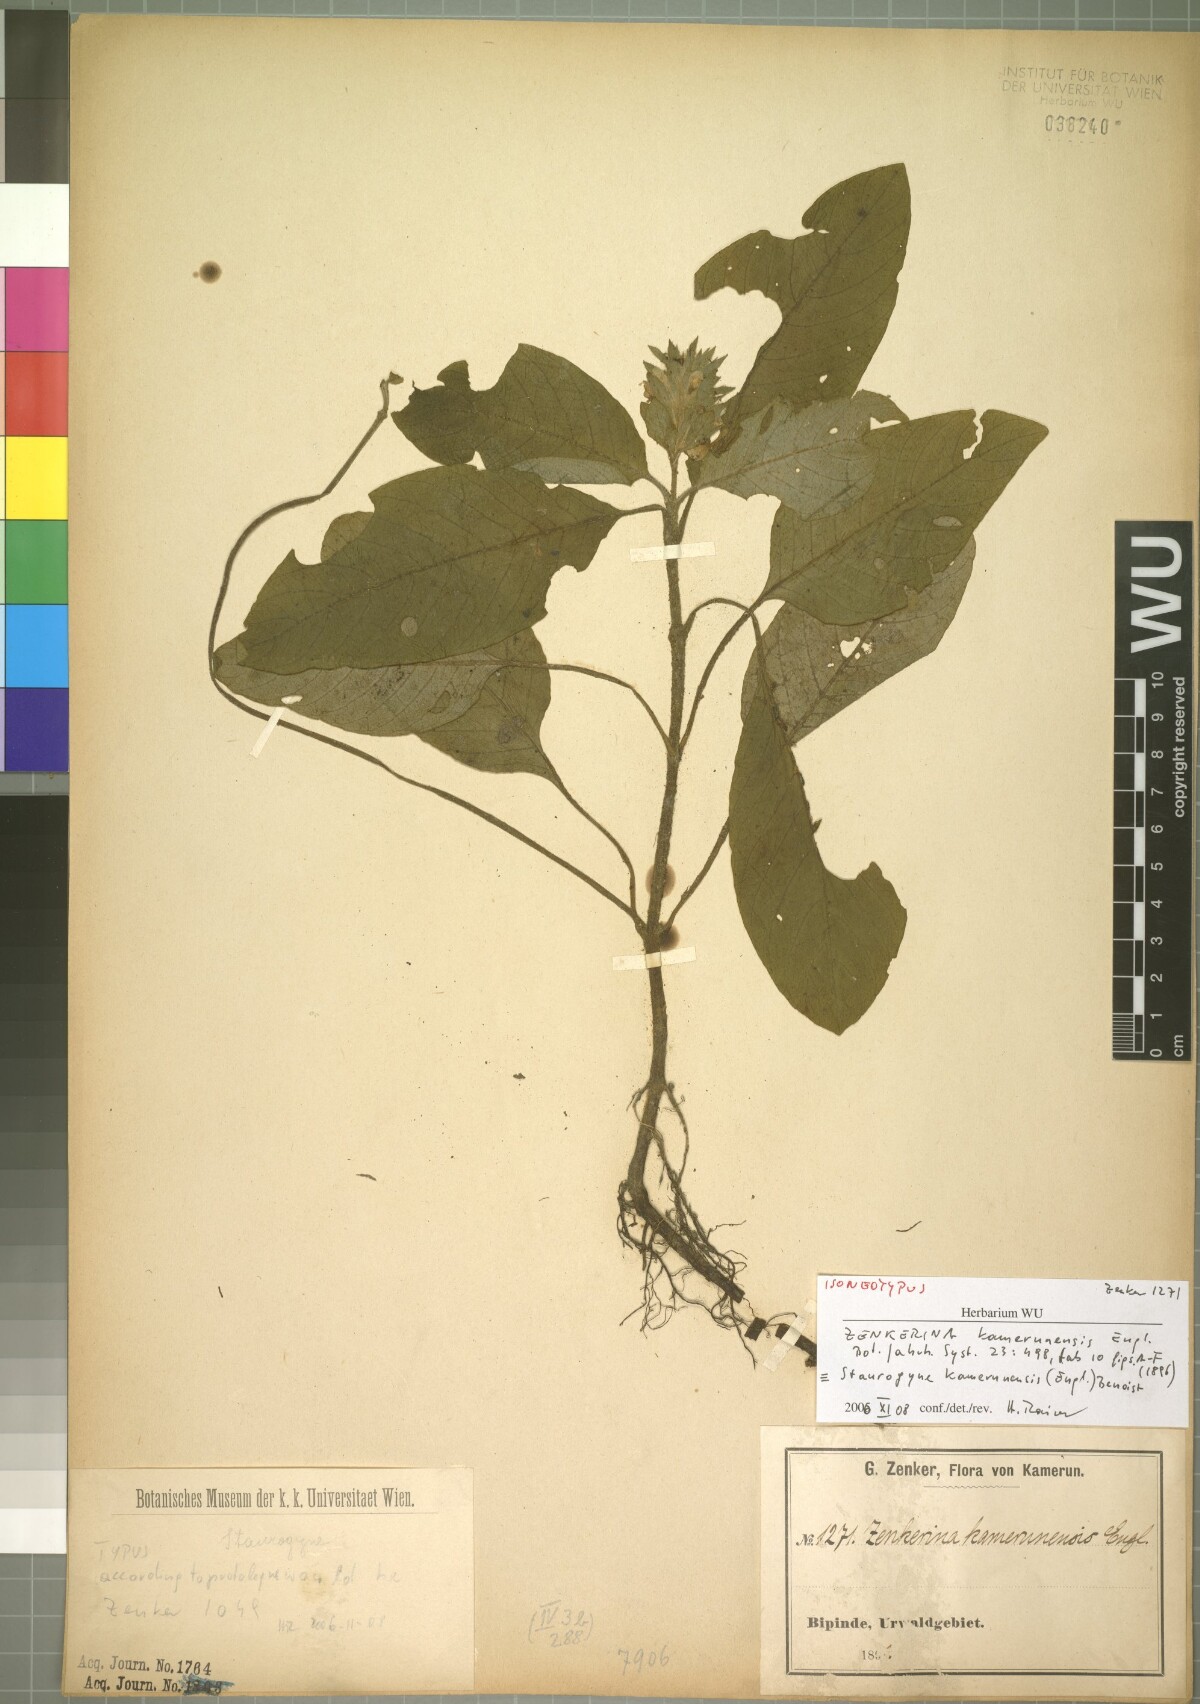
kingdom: Plantae
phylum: Tracheophyta
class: Magnoliopsida
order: Lamiales
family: Acanthaceae
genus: Staurogyne
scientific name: Staurogyne kamerunensis
